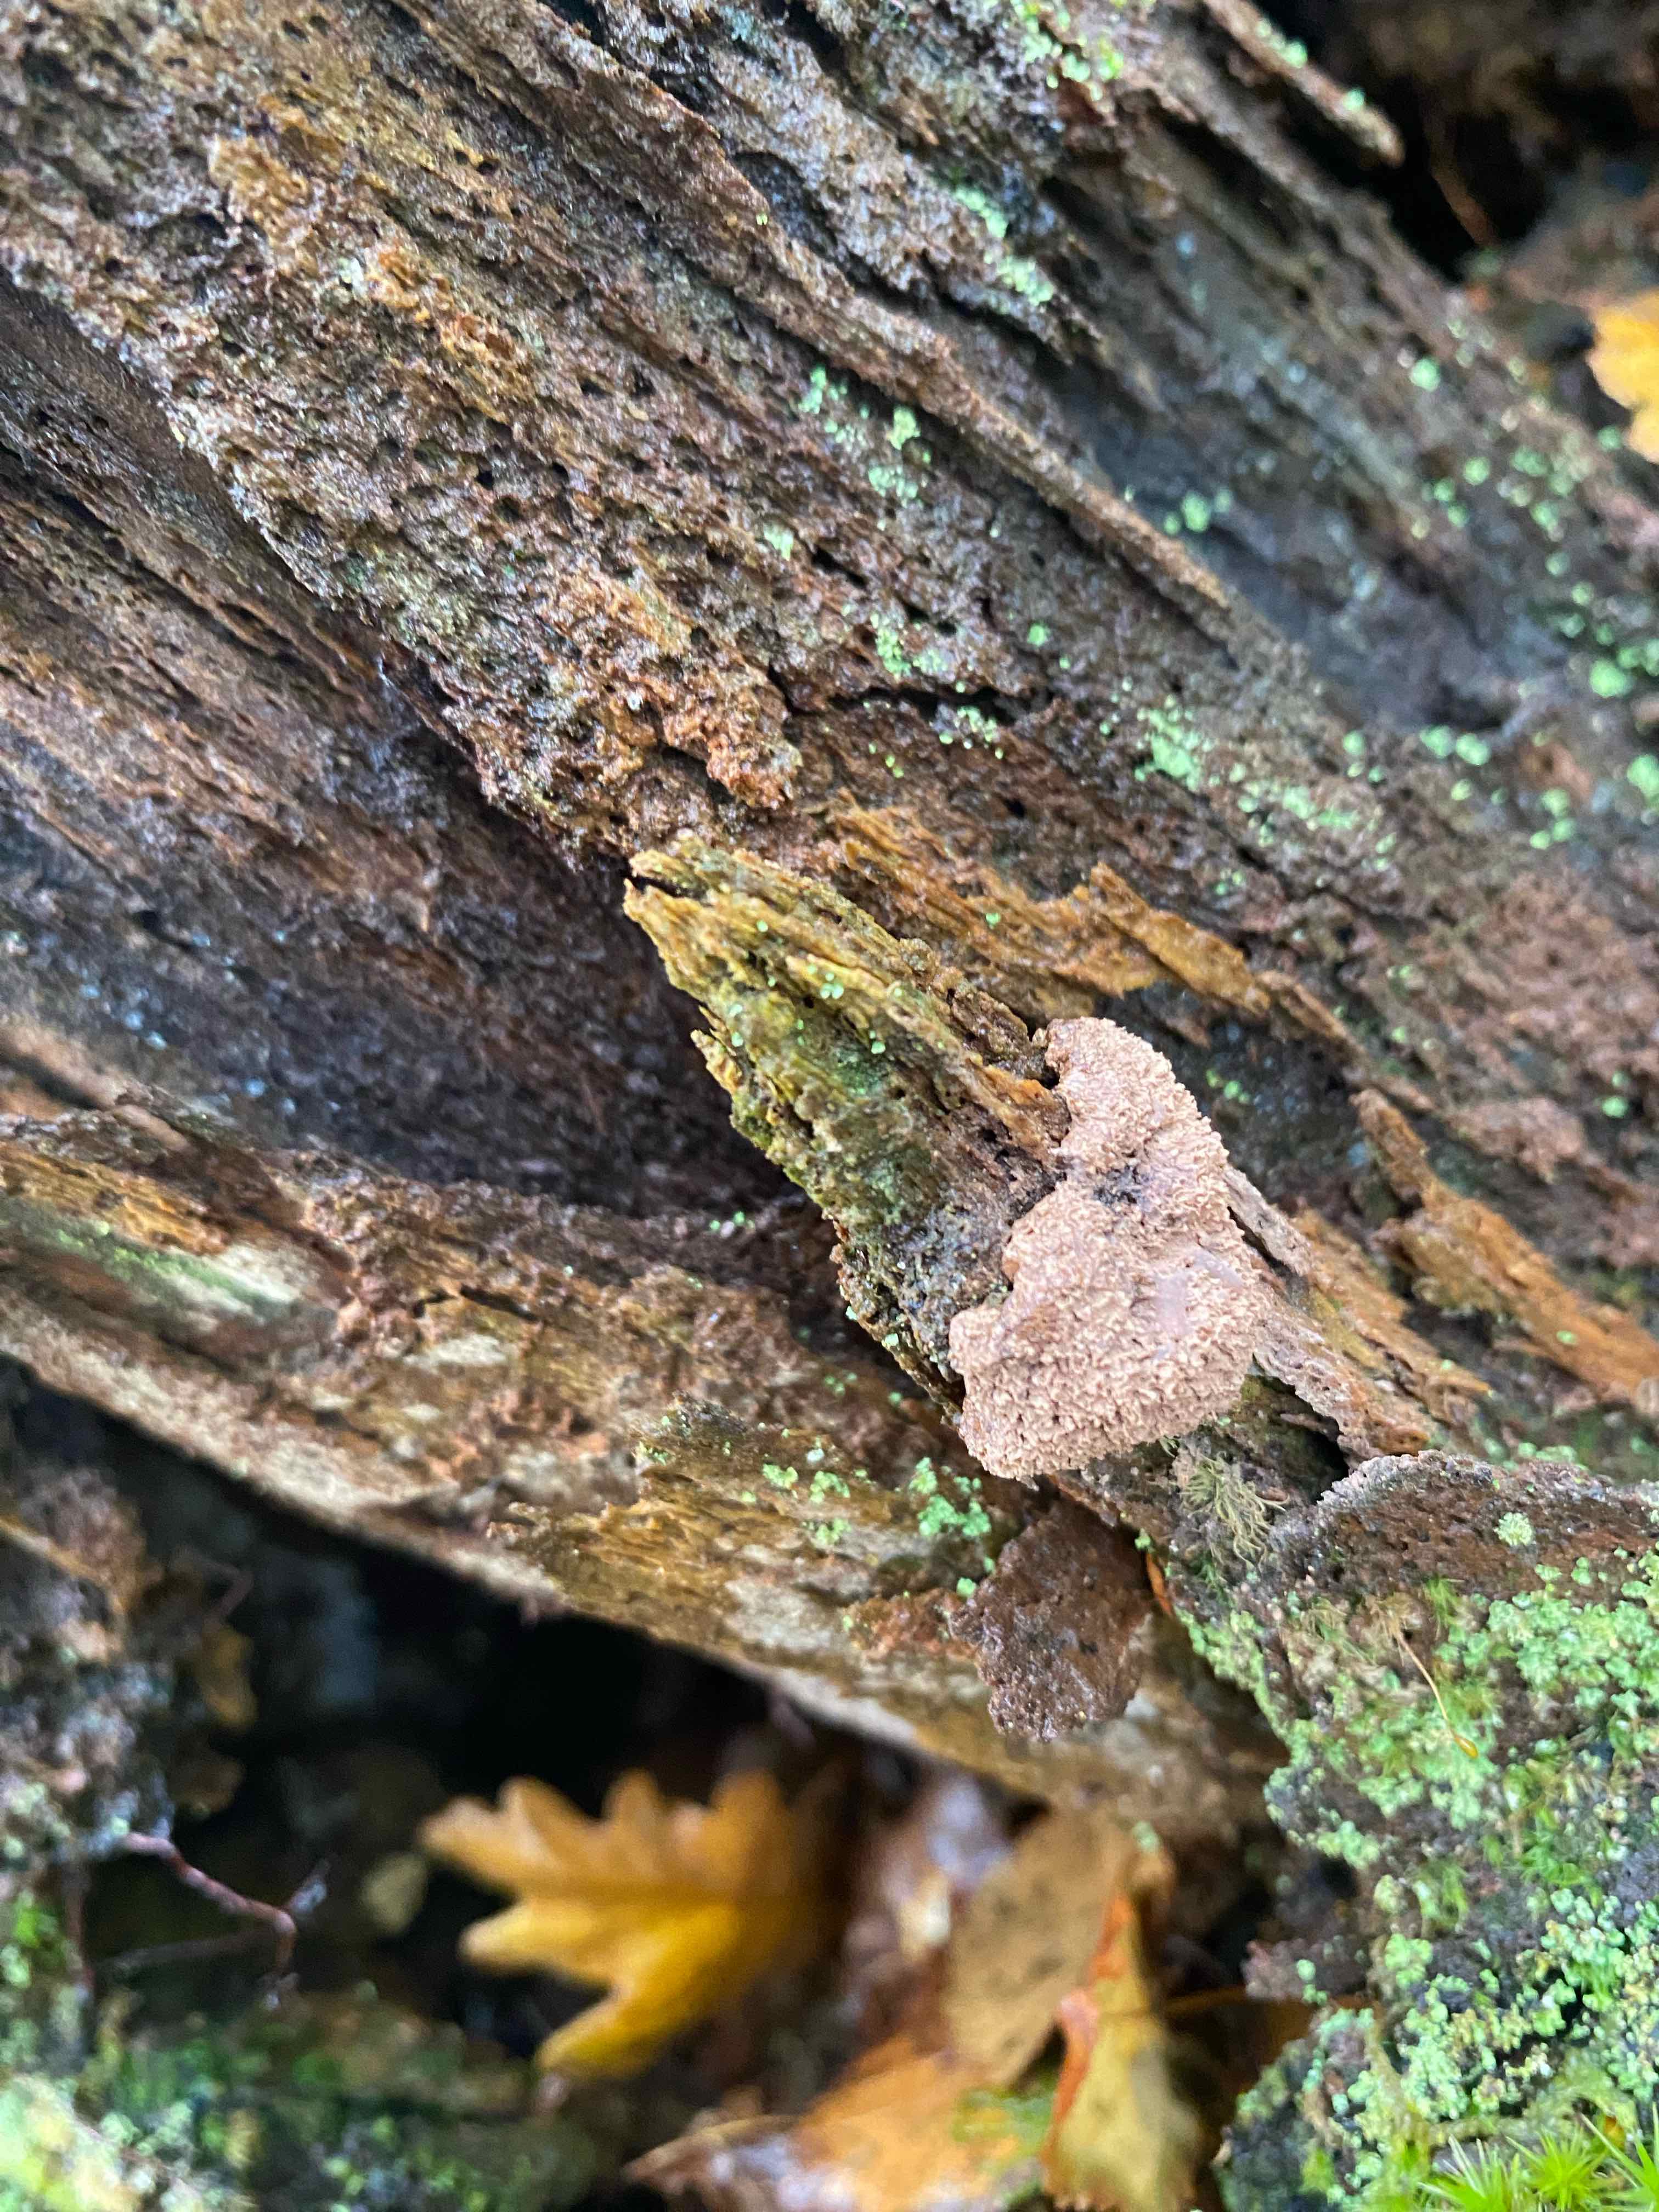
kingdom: Protozoa
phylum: Mycetozoa
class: Myxomycetes
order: Cribrariales
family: Tubiferaceae
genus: Tubifera
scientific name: Tubifera
